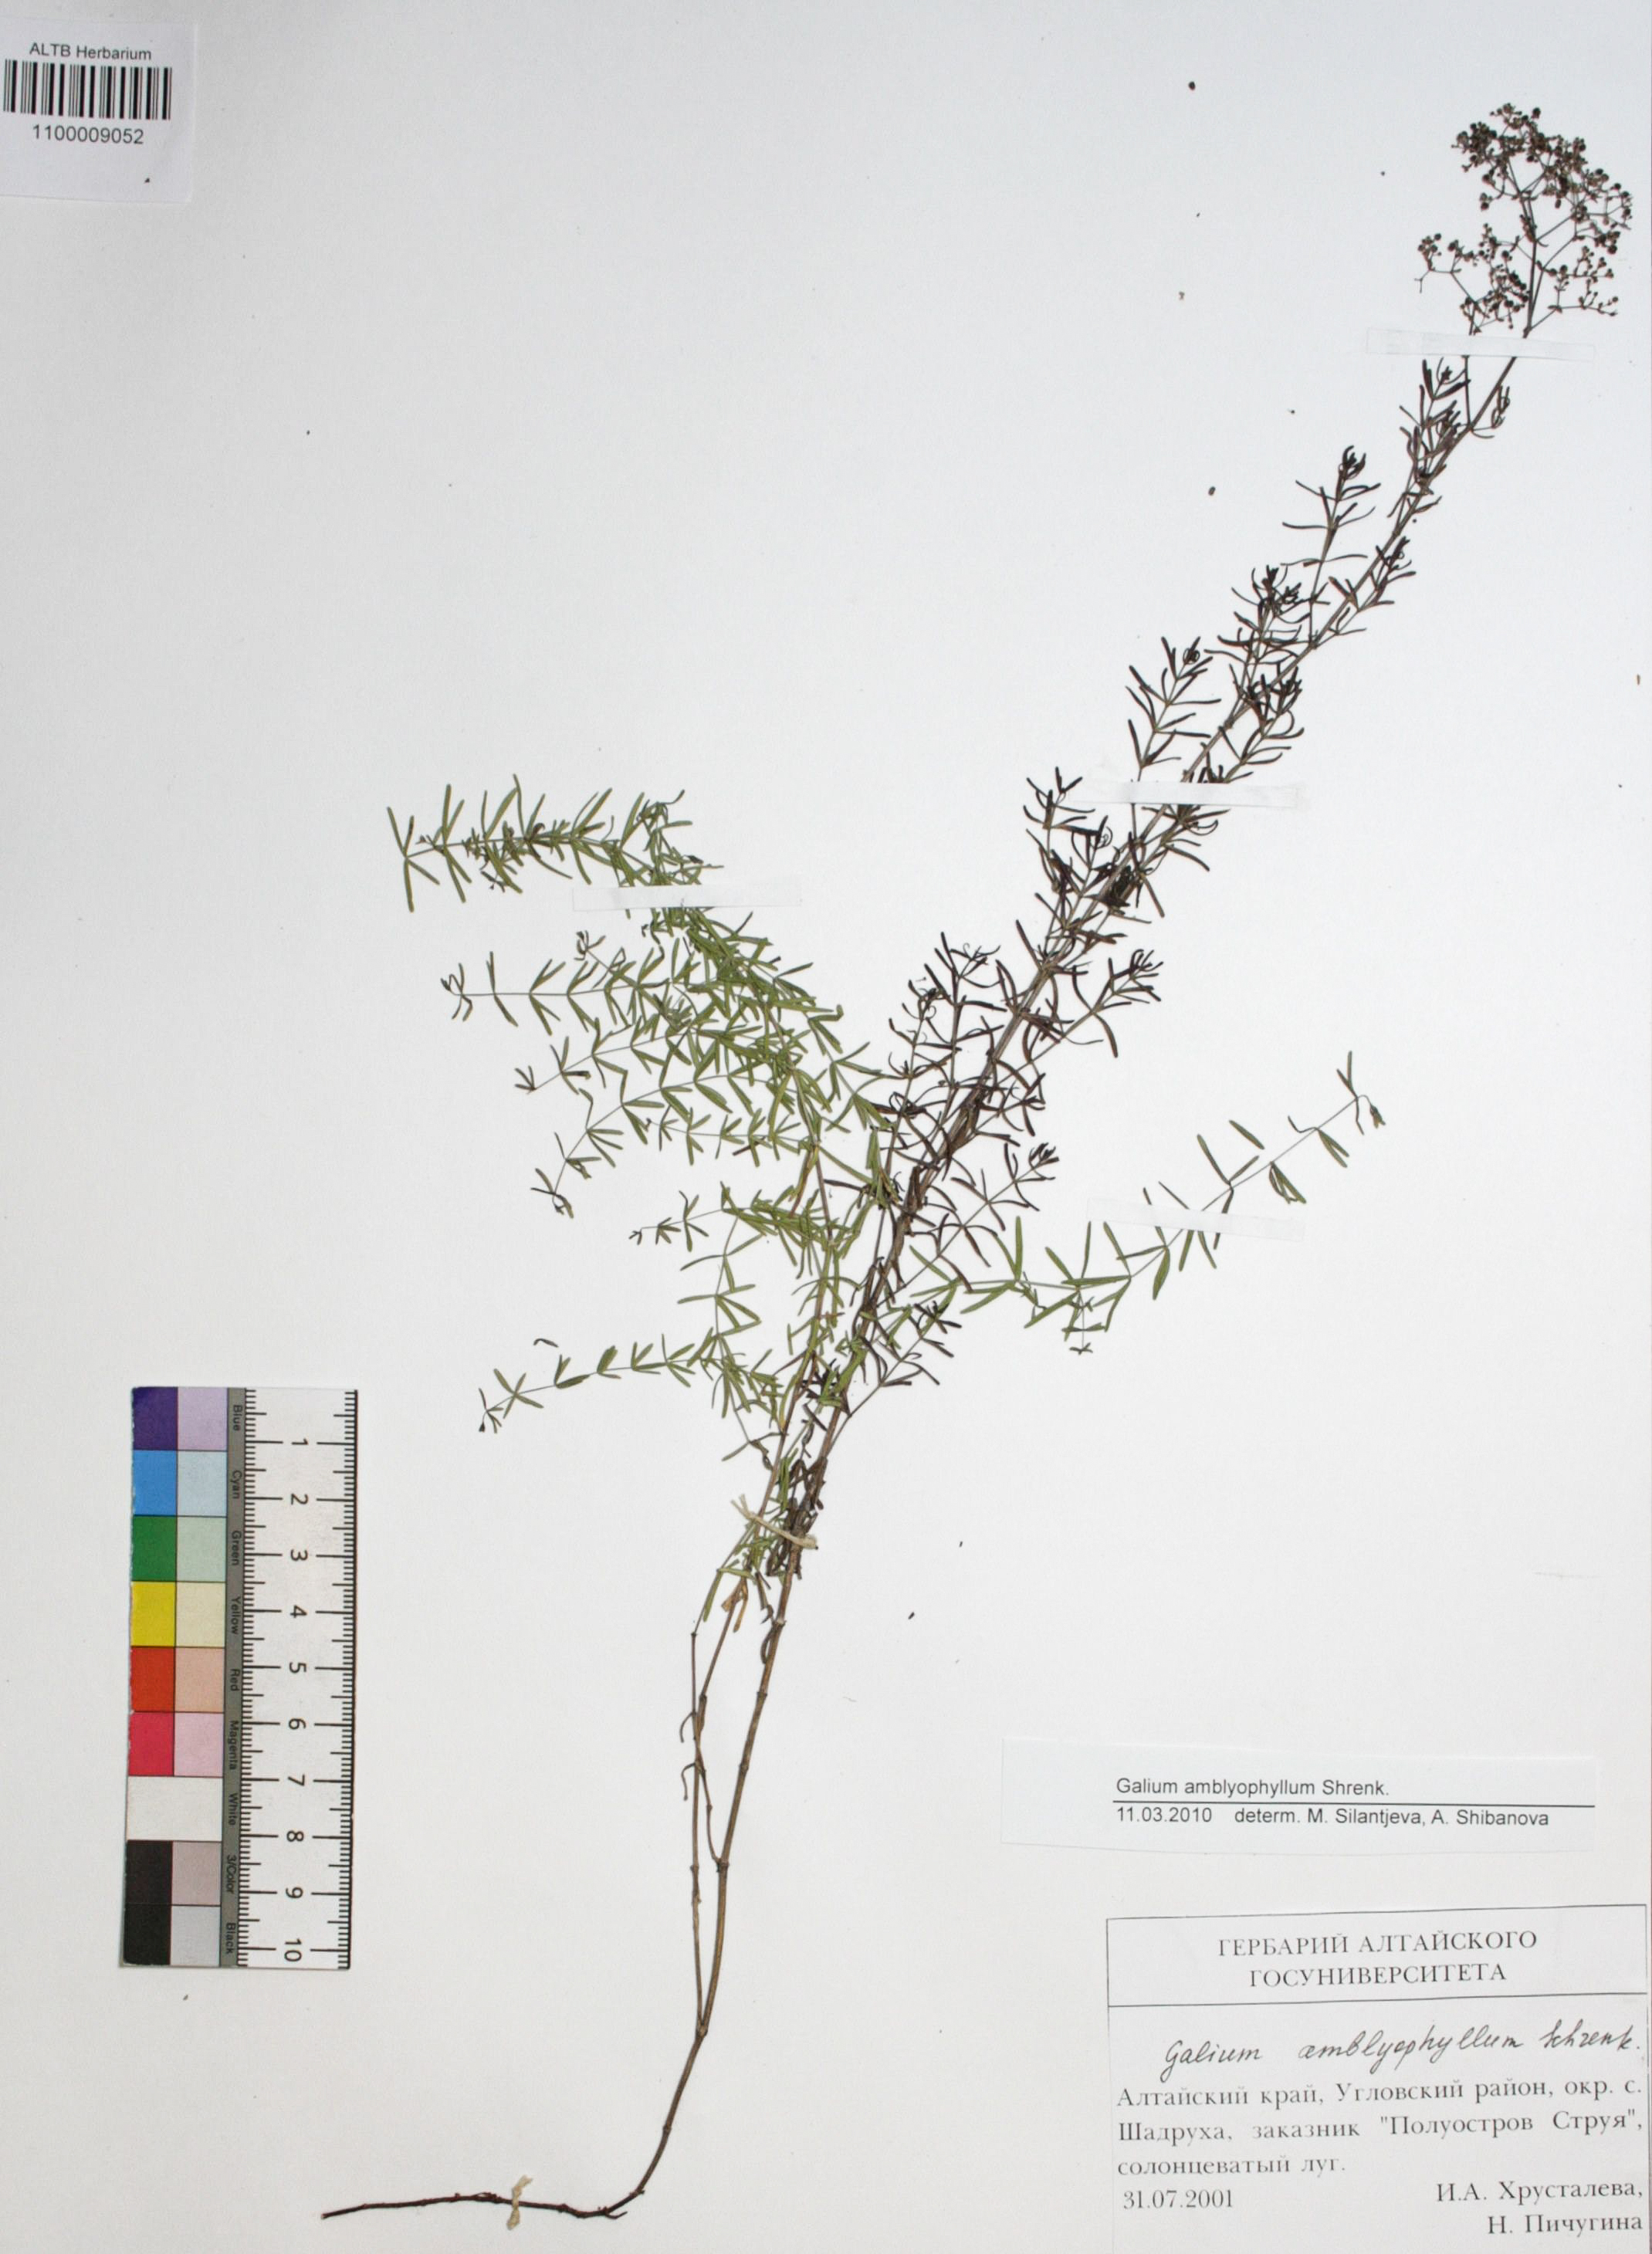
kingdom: Plantae
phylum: Tracheophyta
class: Magnoliopsida
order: Gentianales
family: Rubiaceae
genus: Galium
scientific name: Galium amblyophyllum
